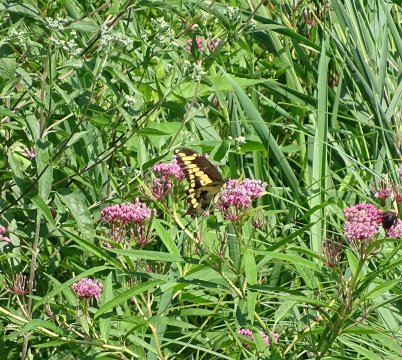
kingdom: Animalia
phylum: Arthropoda
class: Insecta
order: Lepidoptera
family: Papilionidae
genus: Papilio
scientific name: Papilio cresphontes
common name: Eastern Giant Swallowtail
